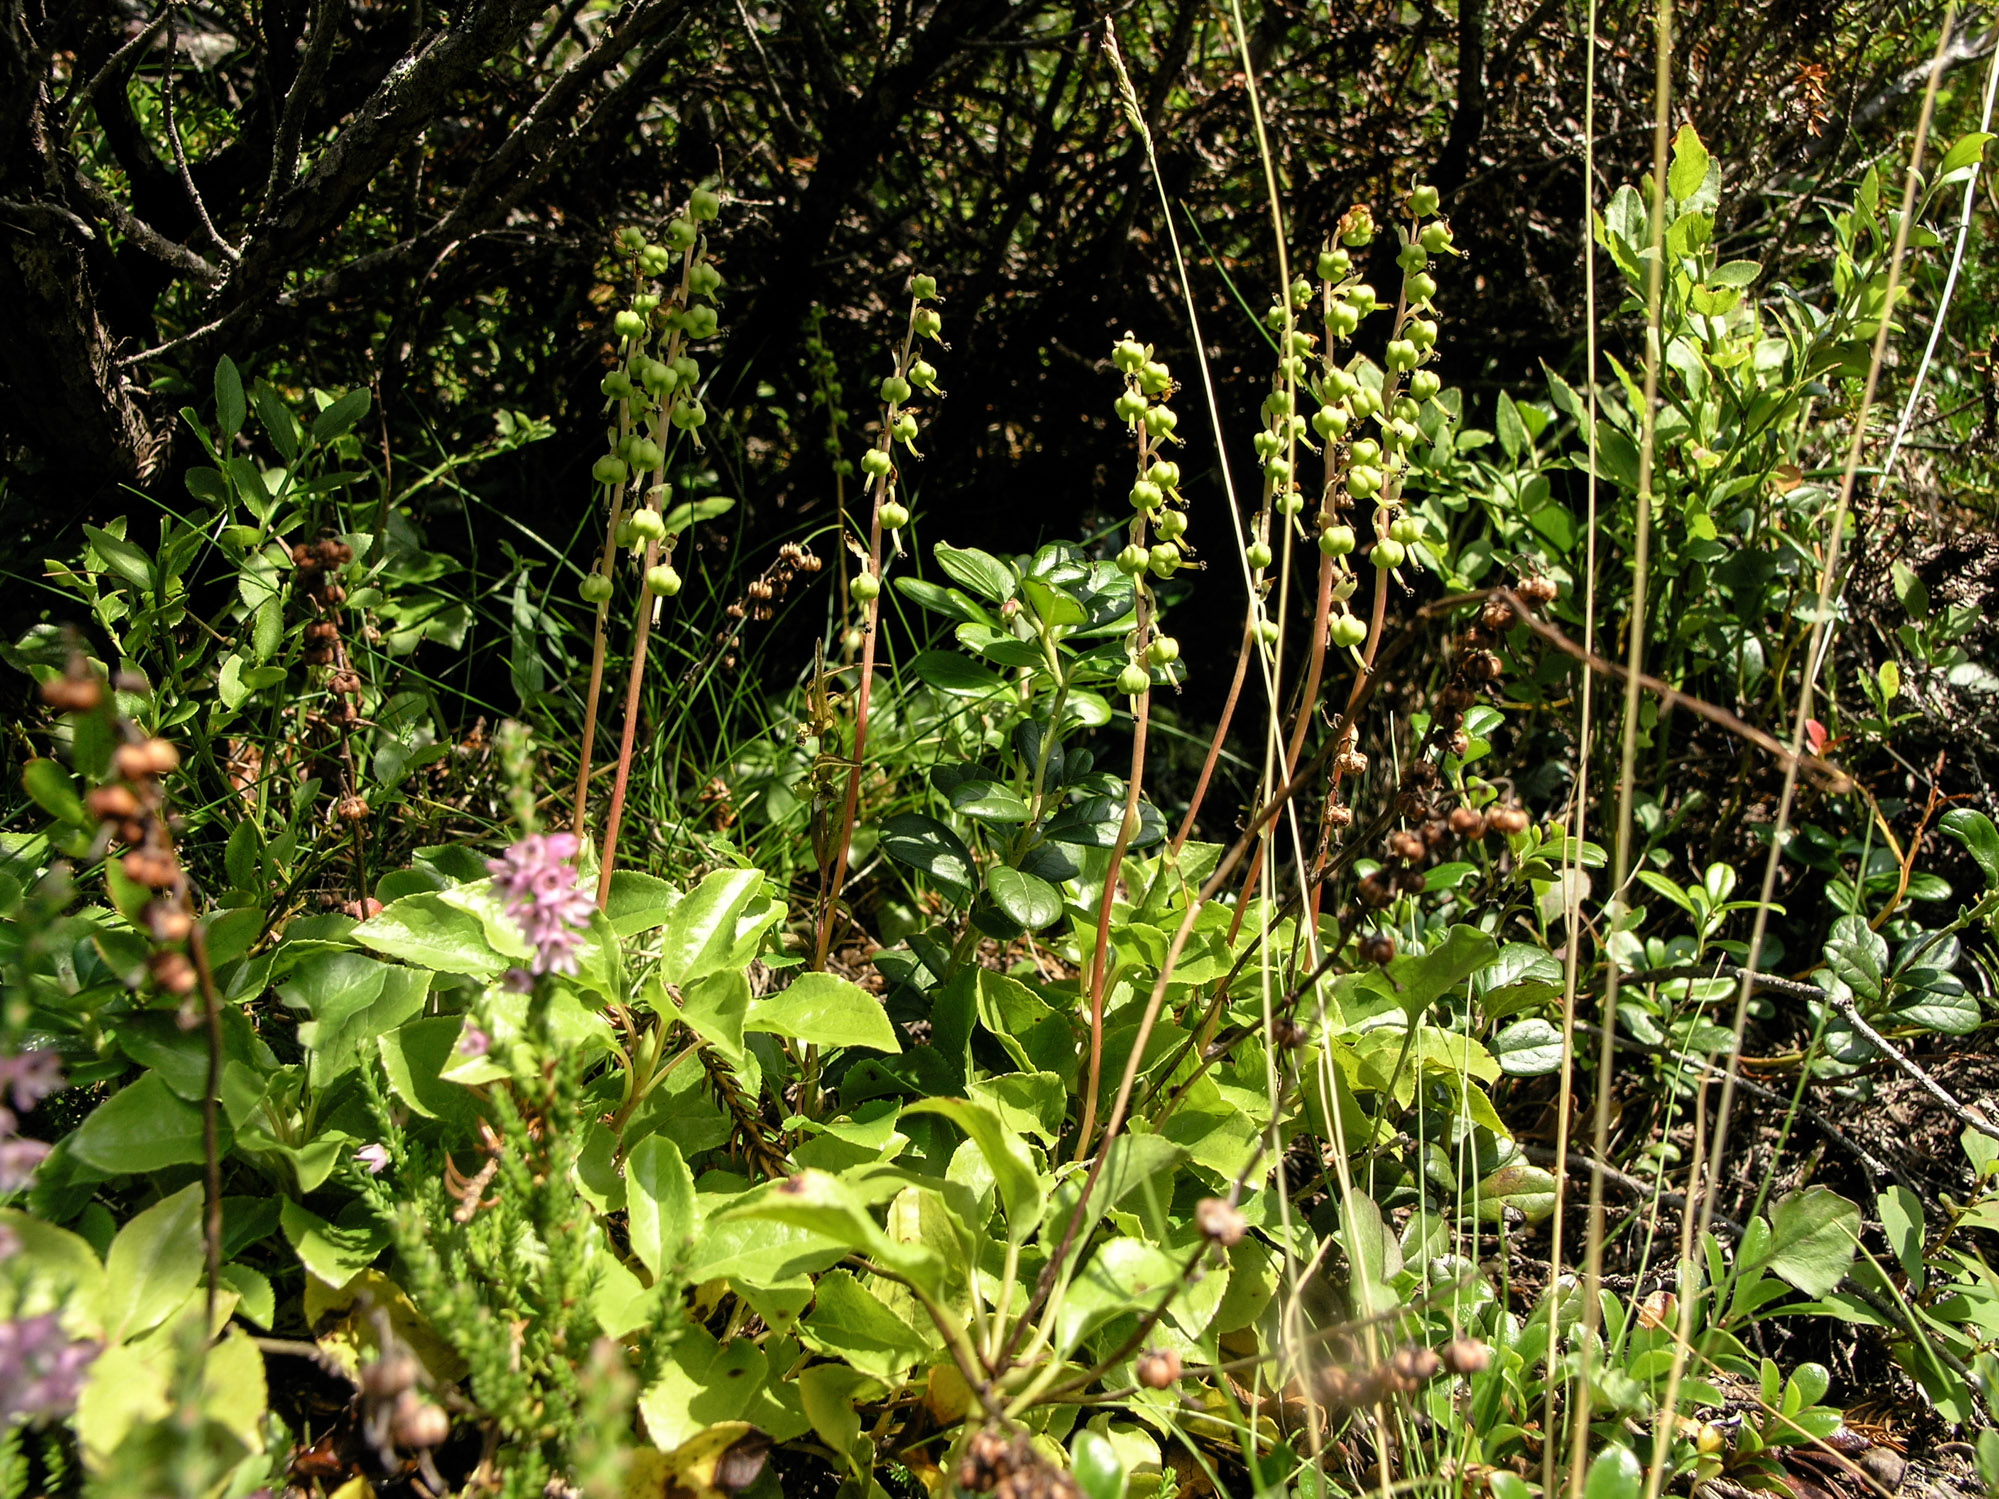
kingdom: Plantae
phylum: Tracheophyta
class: Magnoliopsida
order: Ericales
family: Ericaceae
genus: Orthilia
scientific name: Orthilia secunda
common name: One-sided orthilia
